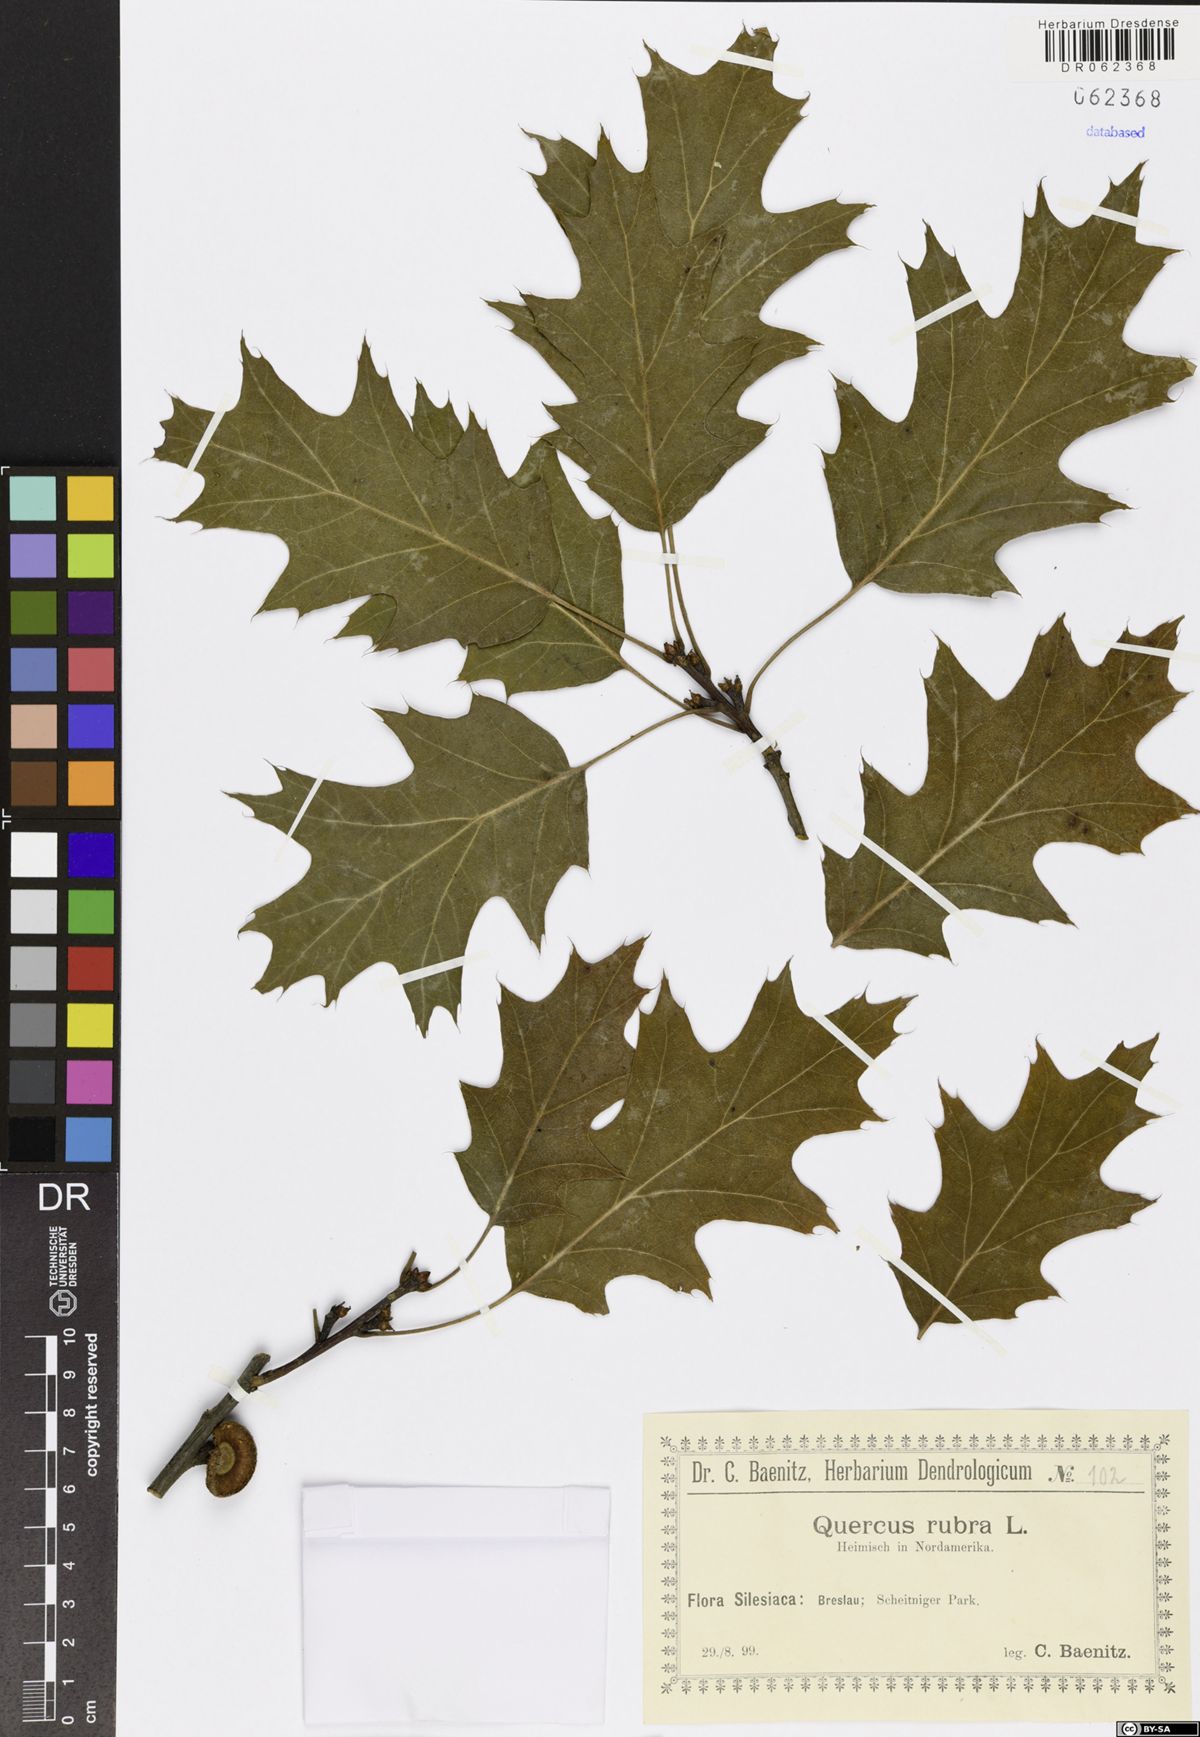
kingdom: Plantae
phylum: Tracheophyta
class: Magnoliopsida
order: Fagales
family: Fagaceae
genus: Quercus
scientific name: Quercus rubra
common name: Red oak
